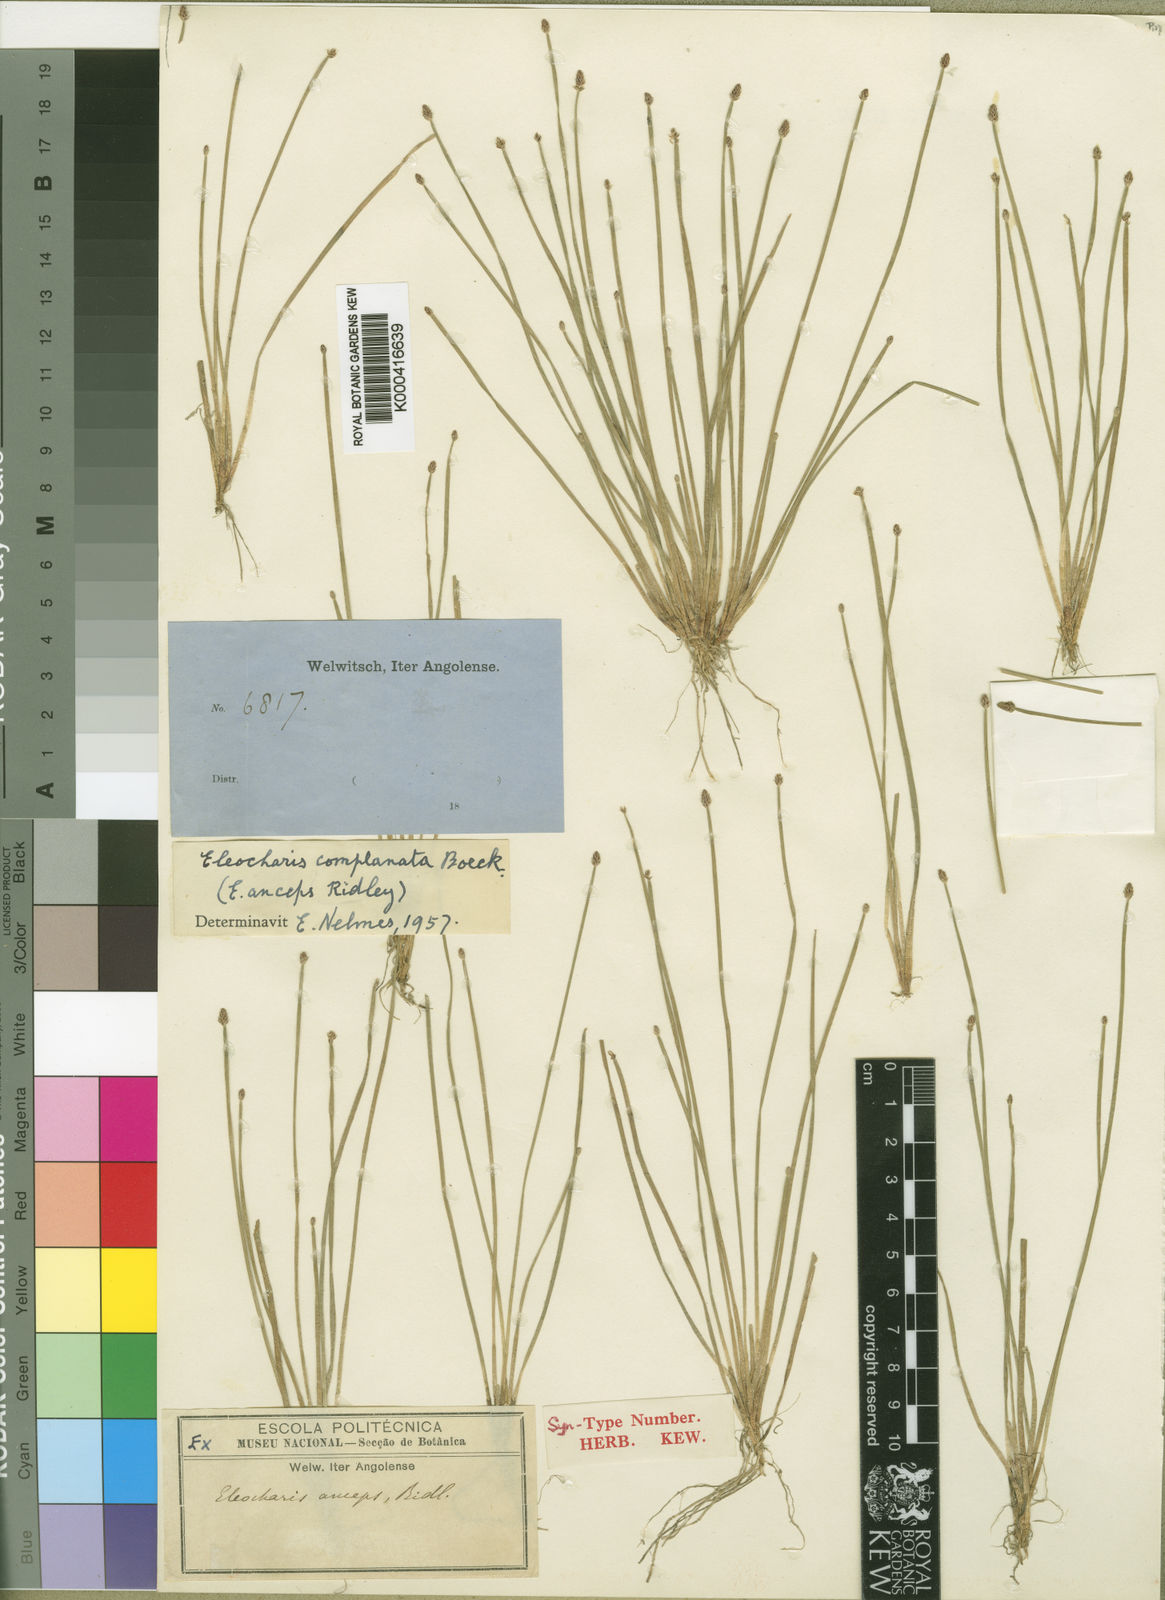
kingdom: Plantae
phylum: Tracheophyta
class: Liliopsida
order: Poales
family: Cyperaceae
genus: Eleocharis
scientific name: Eleocharis complanata
